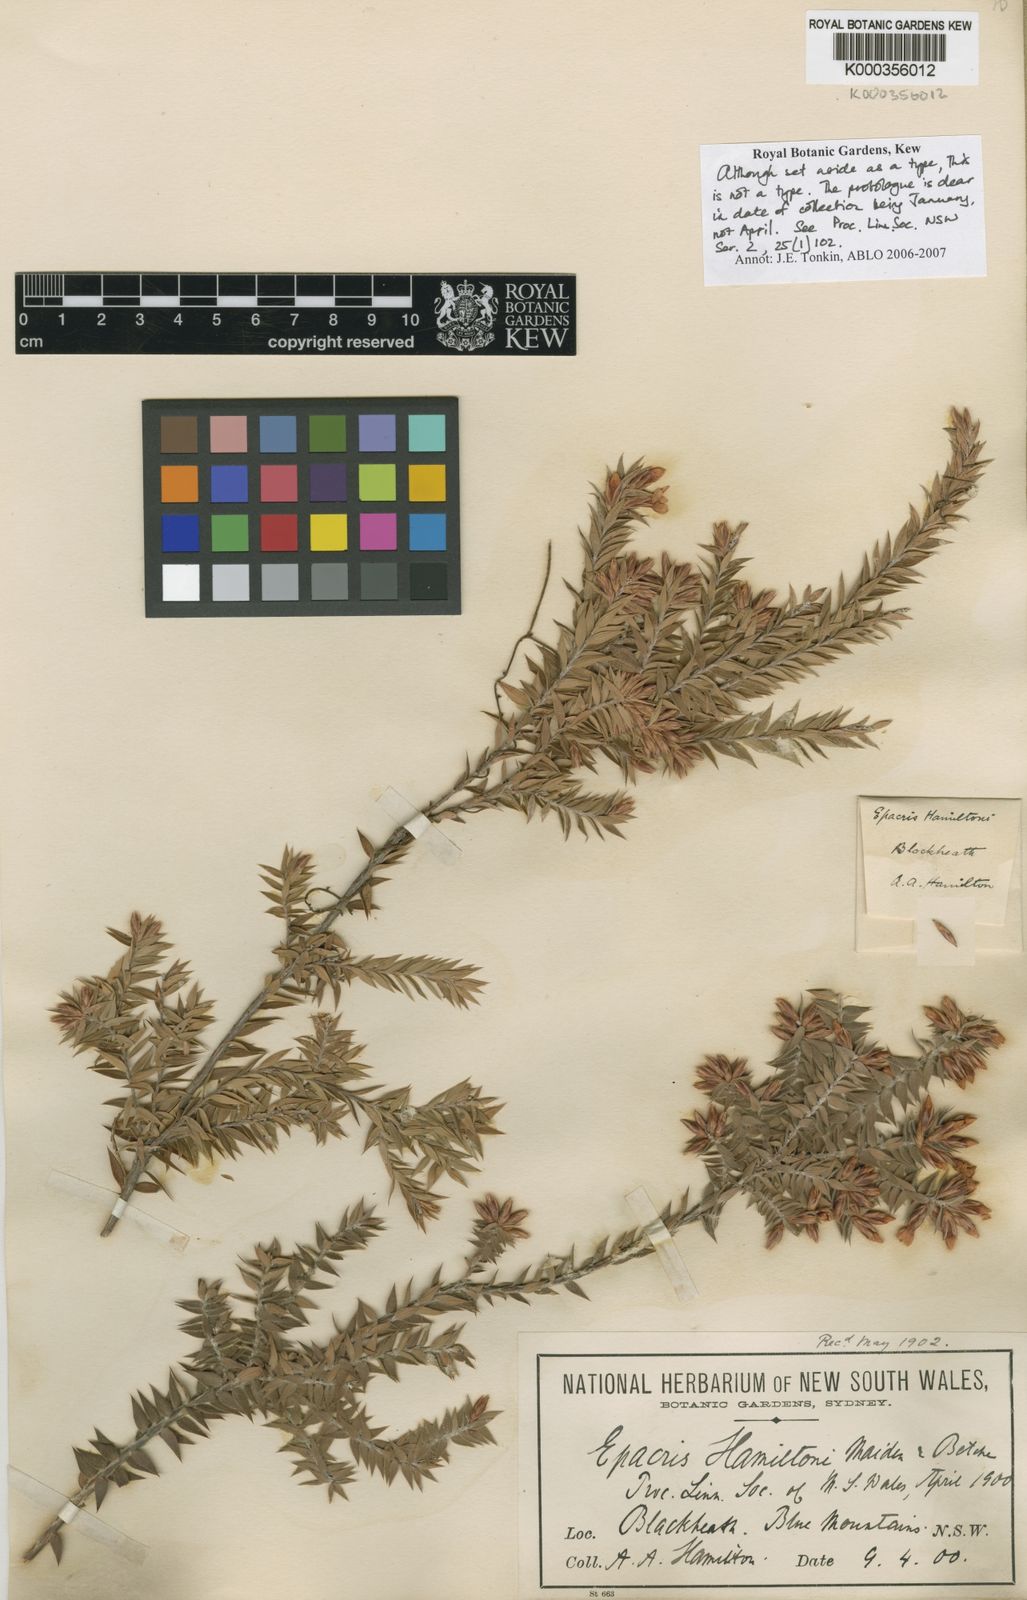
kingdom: Plantae
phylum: Tracheophyta
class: Magnoliopsida
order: Ericales
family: Ericaceae
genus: Epacris
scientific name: Epacris hamiltonii
